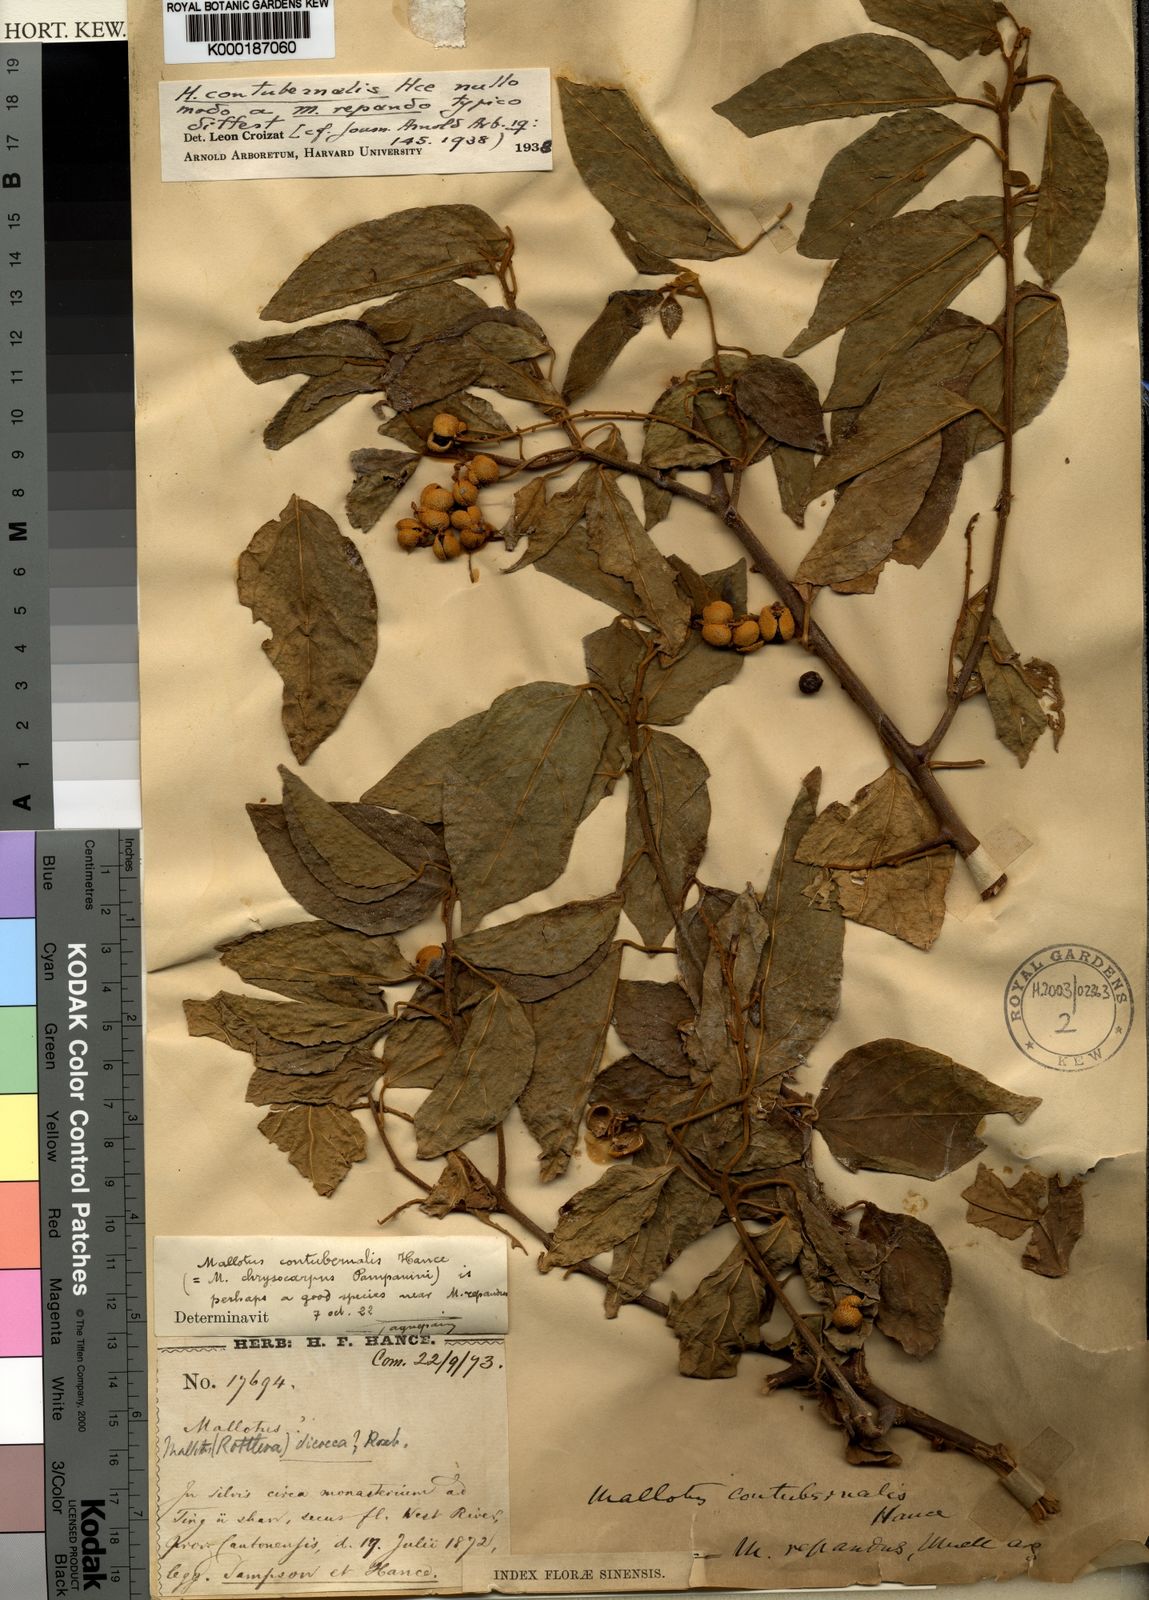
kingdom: Plantae
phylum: Tracheophyta
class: Magnoliopsida
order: Malpighiales
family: Euphorbiaceae
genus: Mallotus
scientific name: Mallotus
